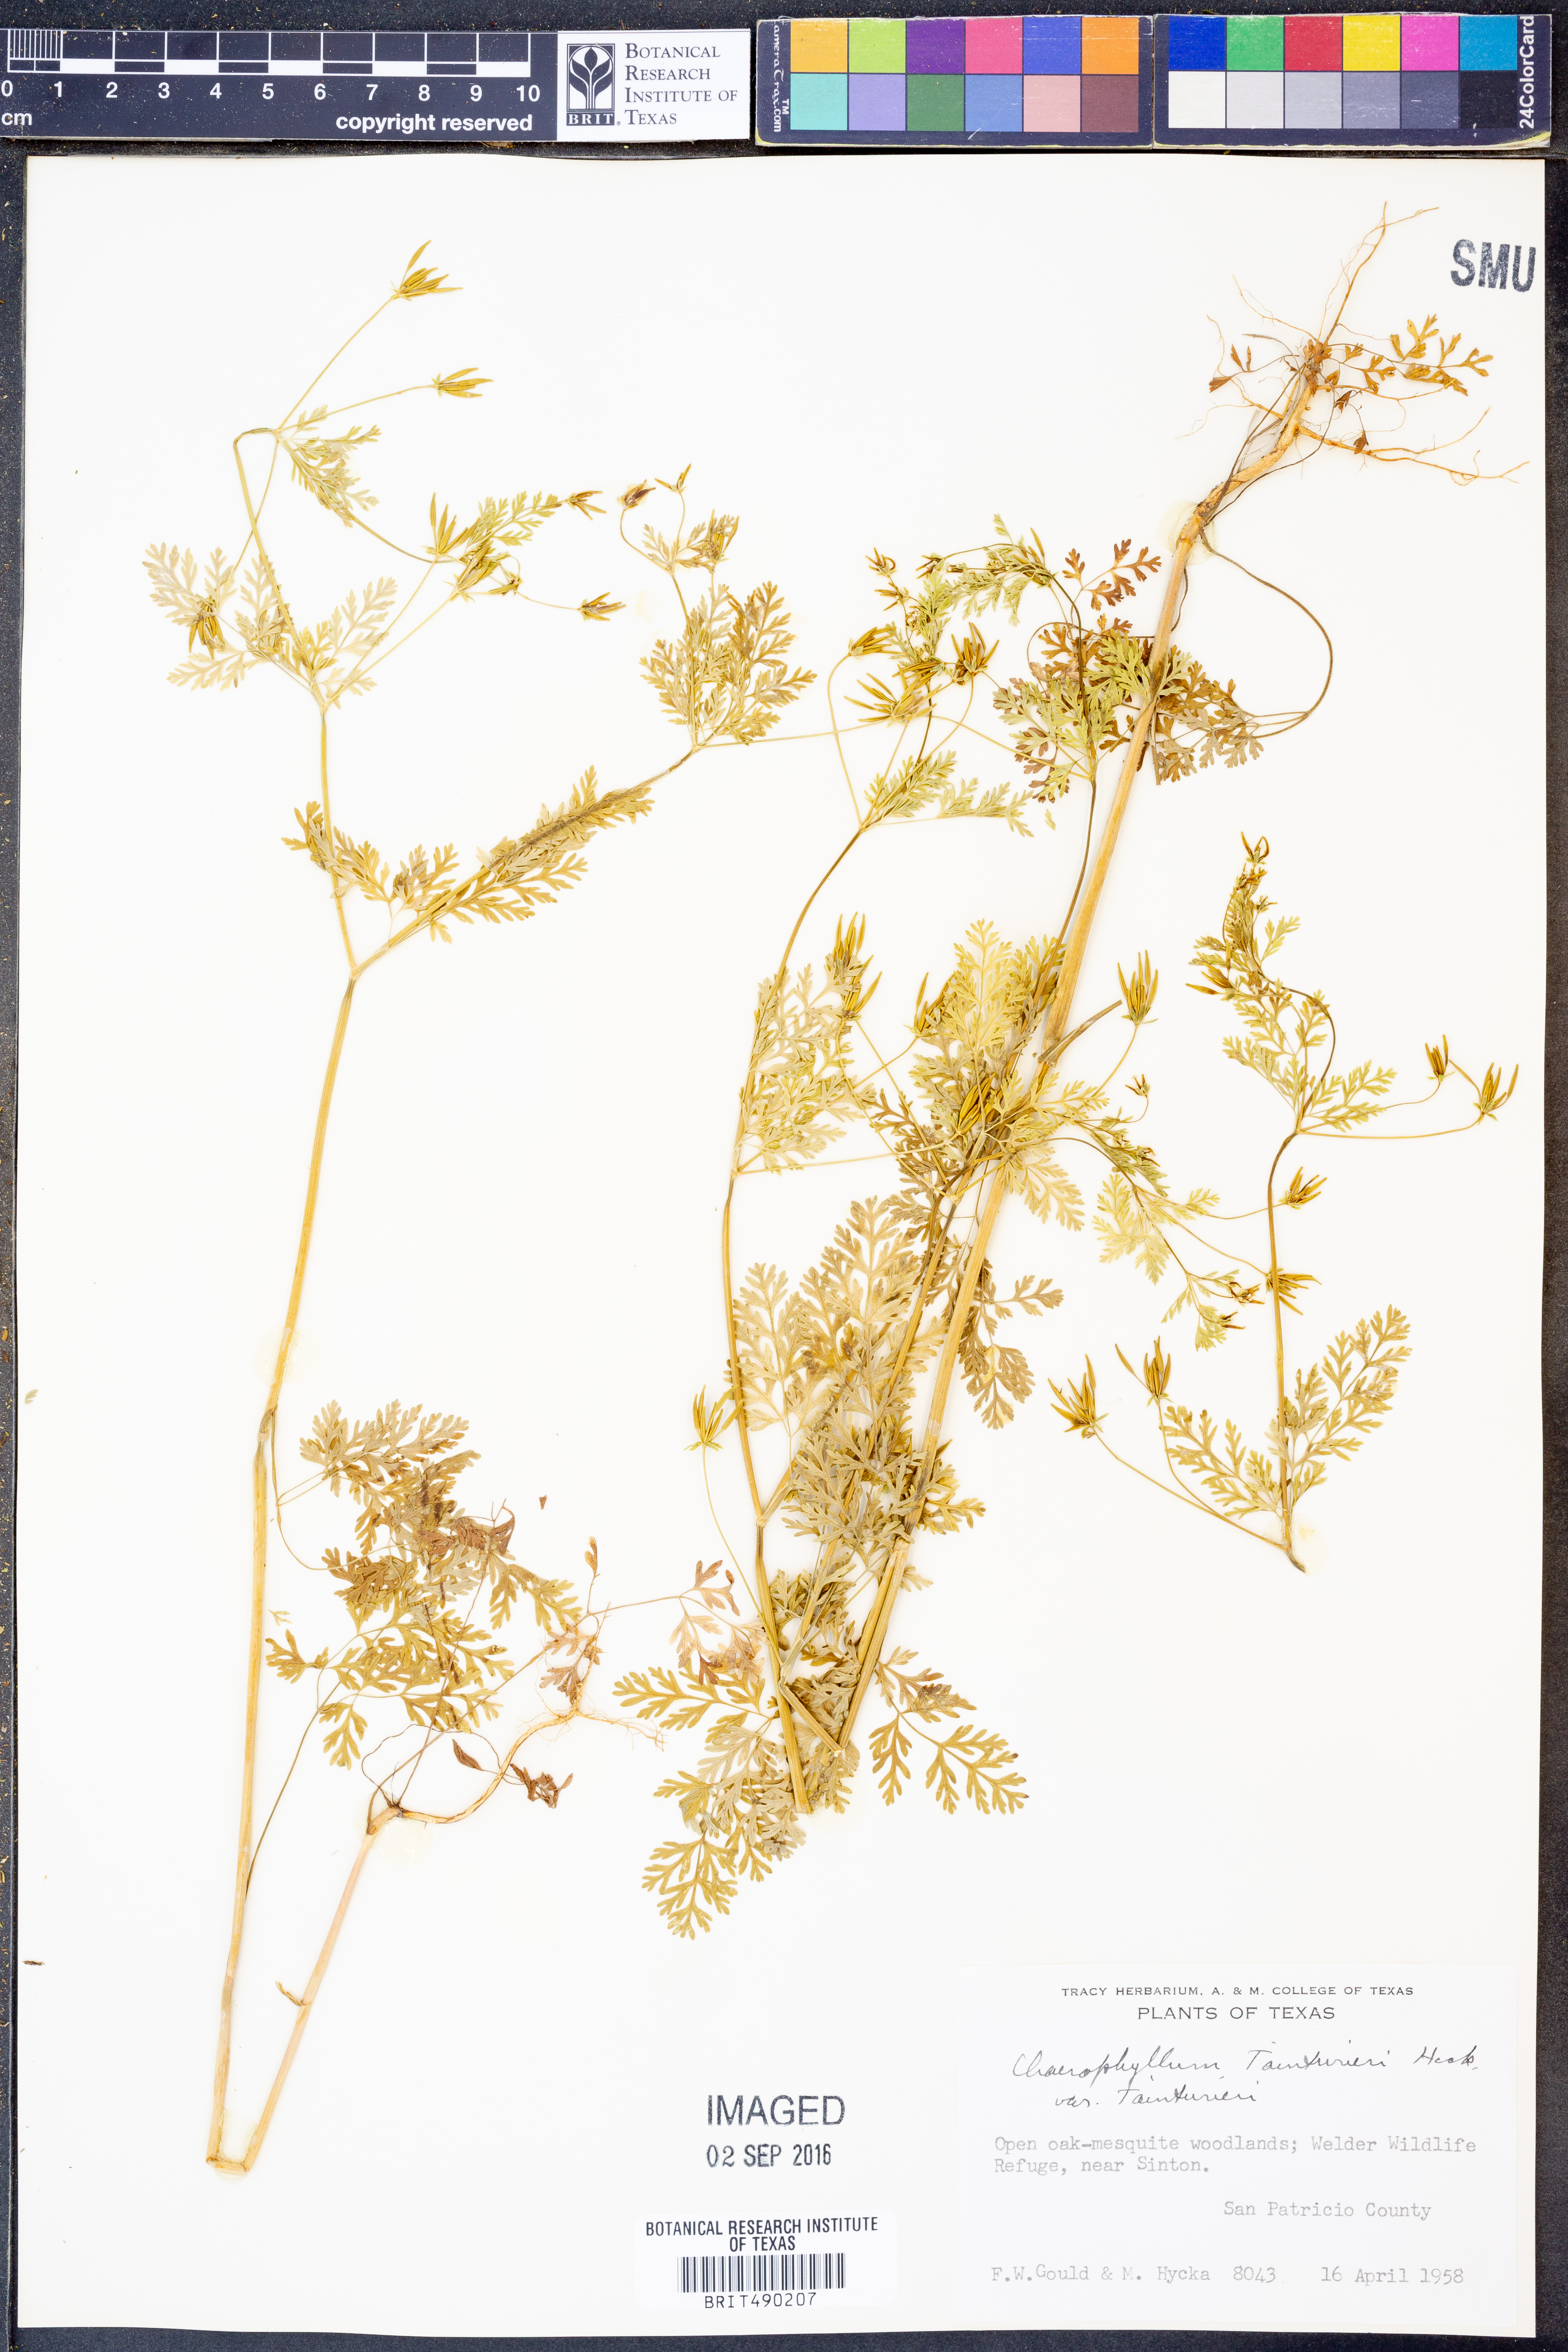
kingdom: Plantae
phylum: Tracheophyta
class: Magnoliopsida
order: Apiales
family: Apiaceae
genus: Chaerophyllum
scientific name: Chaerophyllum tainturieri
